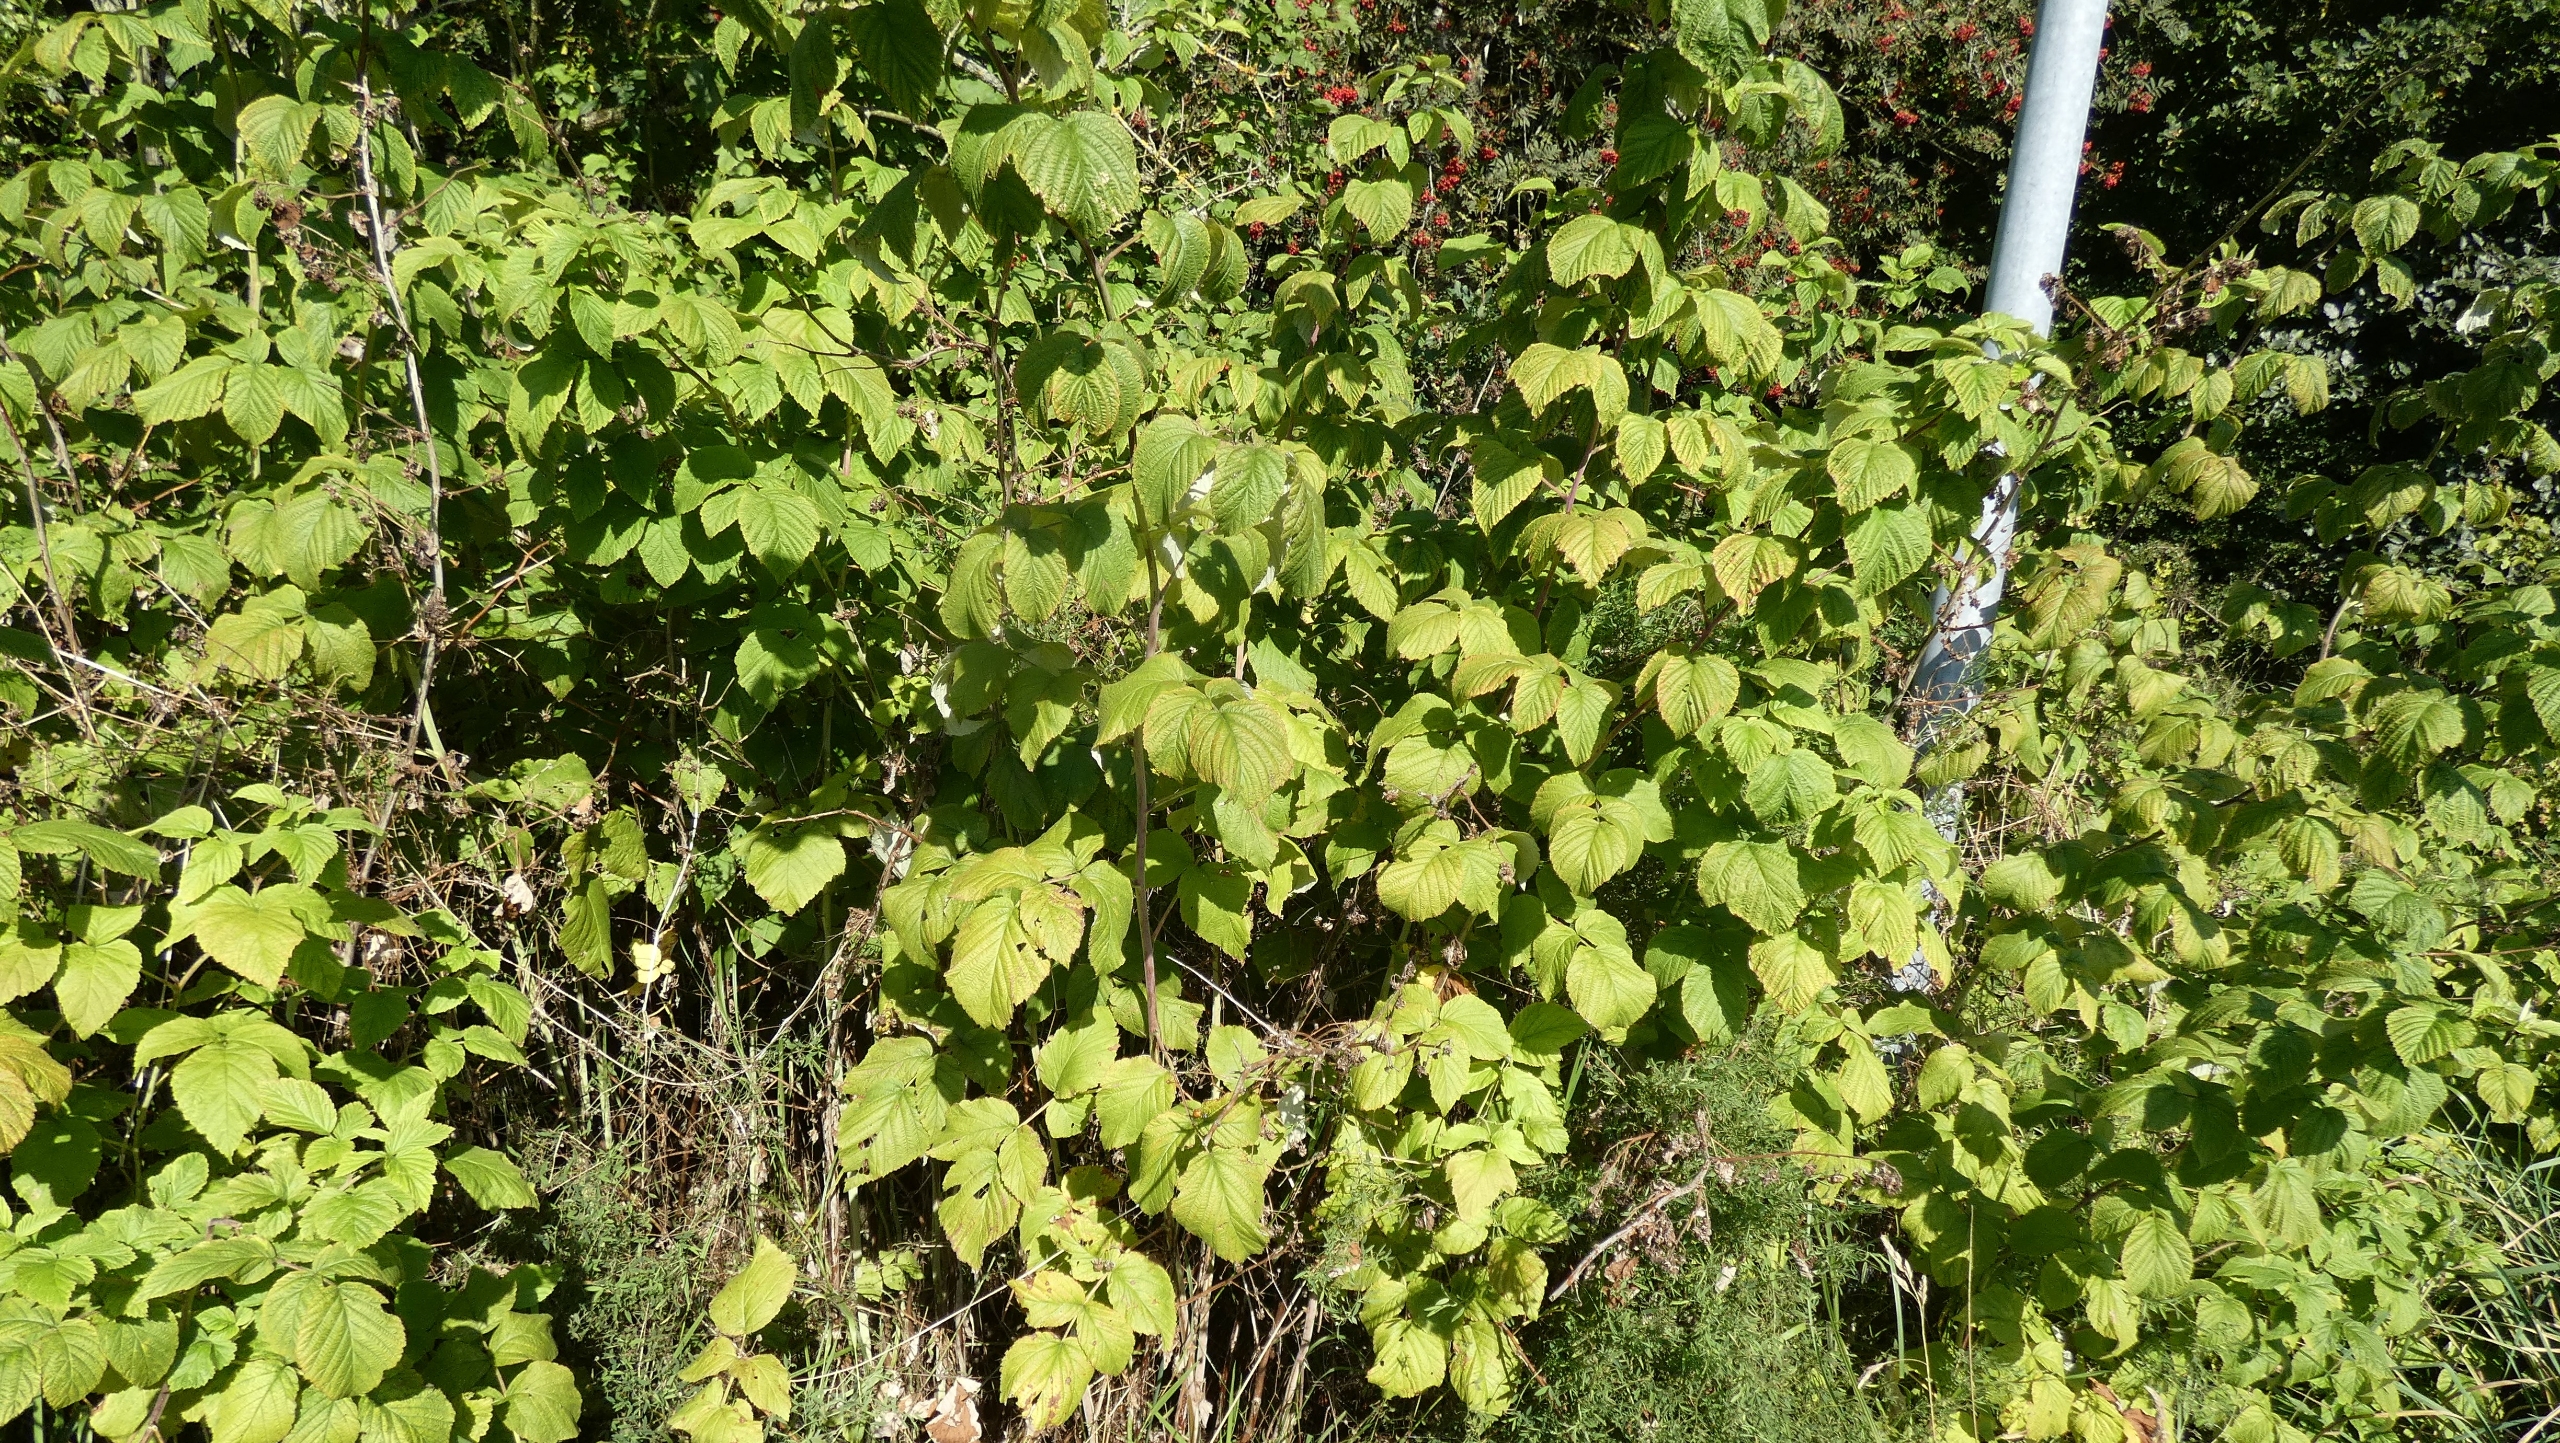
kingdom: Plantae
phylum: Tracheophyta
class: Magnoliopsida
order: Rosales
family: Rosaceae
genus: Rubus
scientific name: Rubus idaeus
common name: Hindbær
